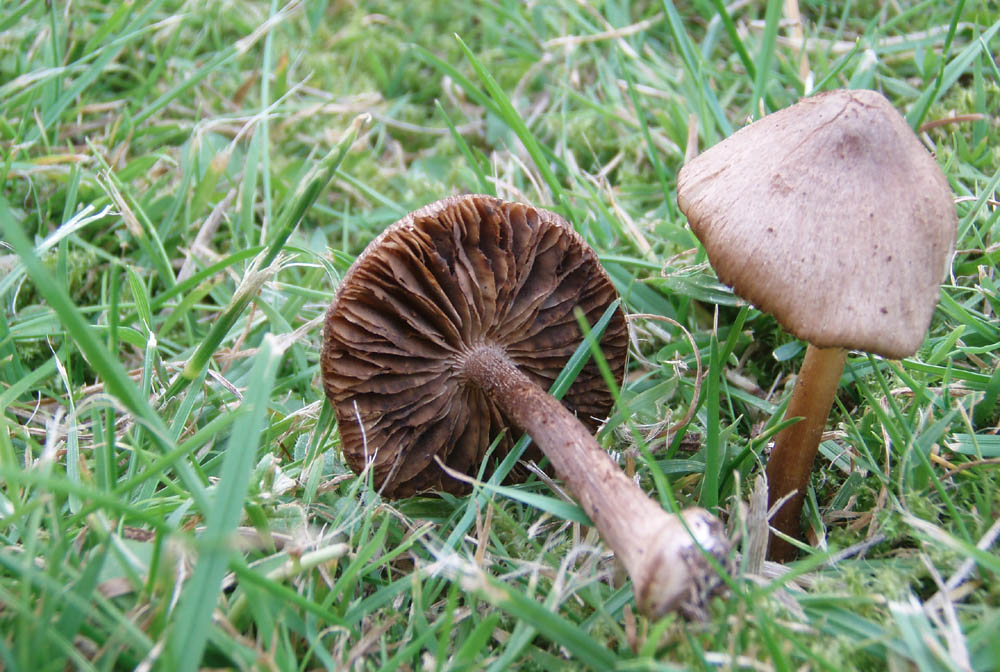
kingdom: Fungi
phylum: Basidiomycota
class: Agaricomycetes
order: Agaricales
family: Inocybaceae
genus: Inocybe
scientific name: Inocybe napipes
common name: roeknoldet trævlhat
